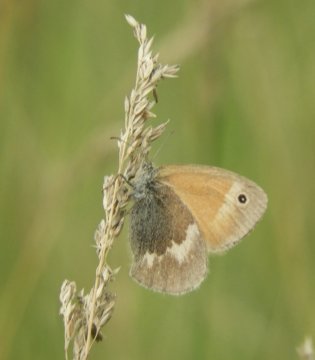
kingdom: Animalia
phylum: Arthropoda
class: Insecta
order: Lepidoptera
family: Nymphalidae
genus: Coenonympha
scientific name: Coenonympha tullia
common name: Large Heath
